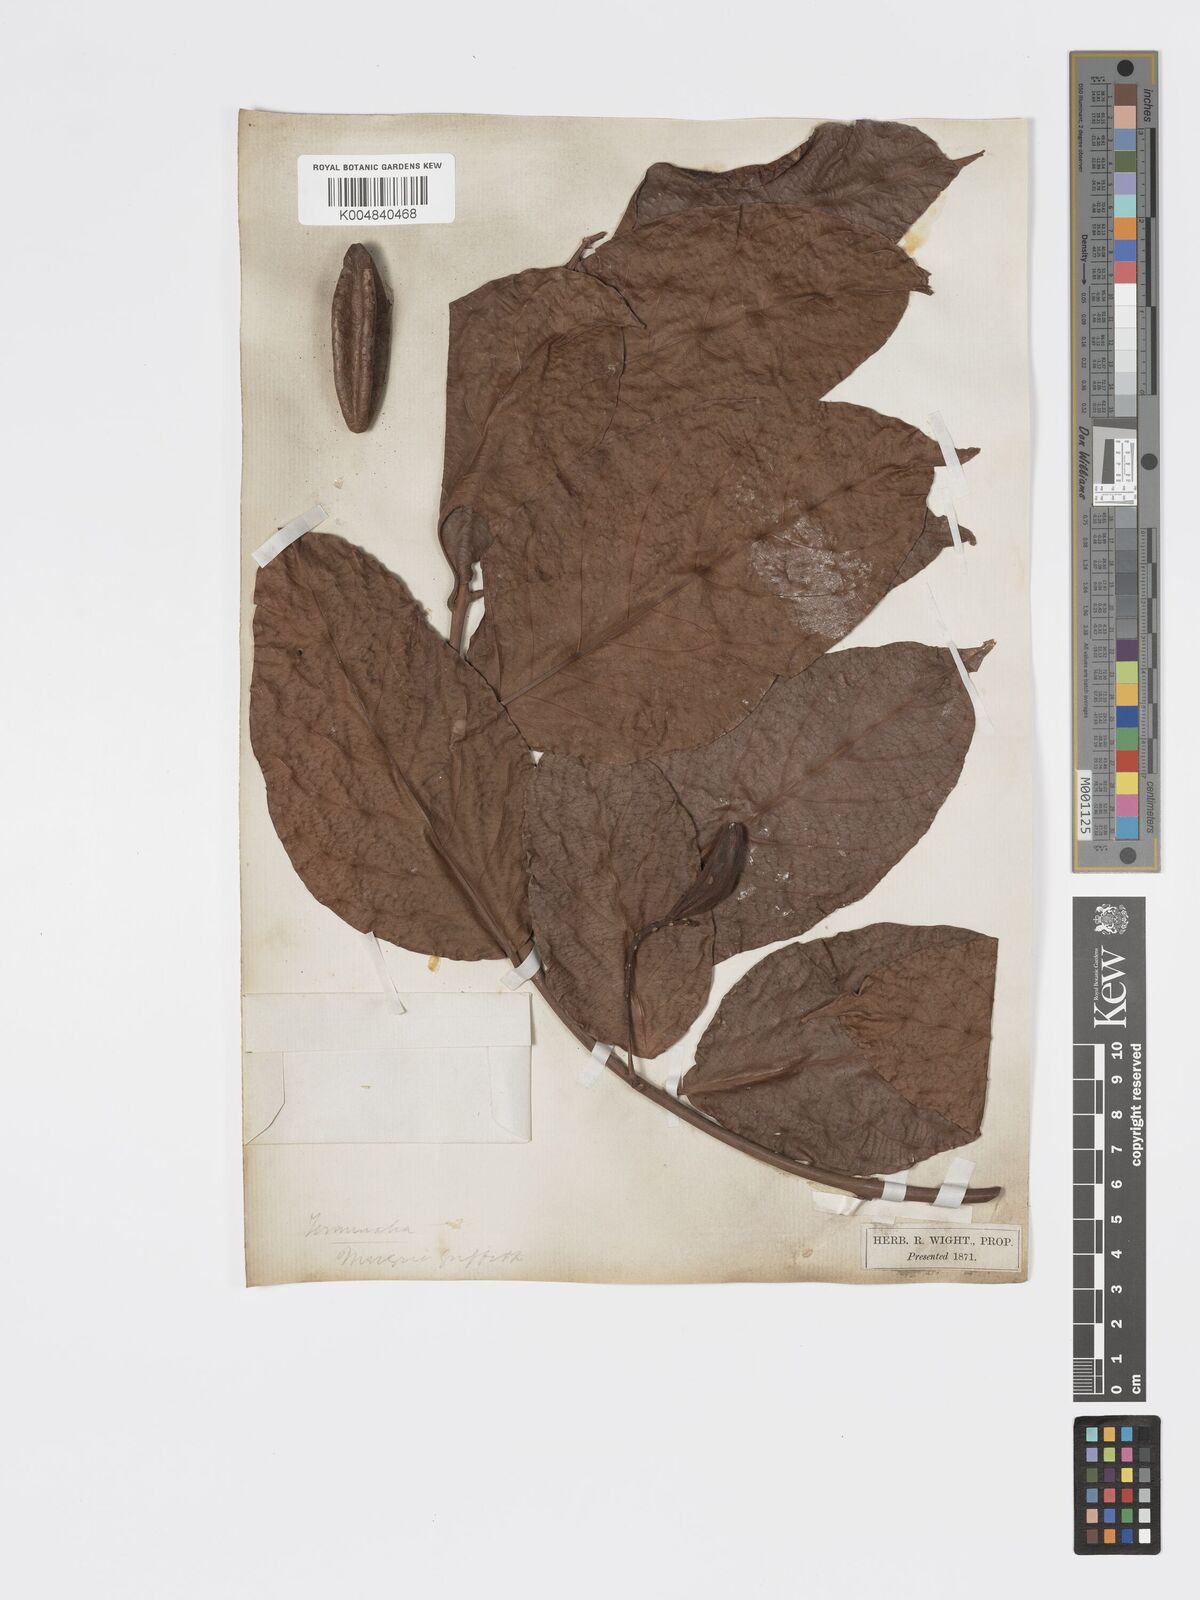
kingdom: Plantae
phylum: Tracheophyta
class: Magnoliopsida
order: Myrtales
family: Combretaceae
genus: Combretum
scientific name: Combretum
